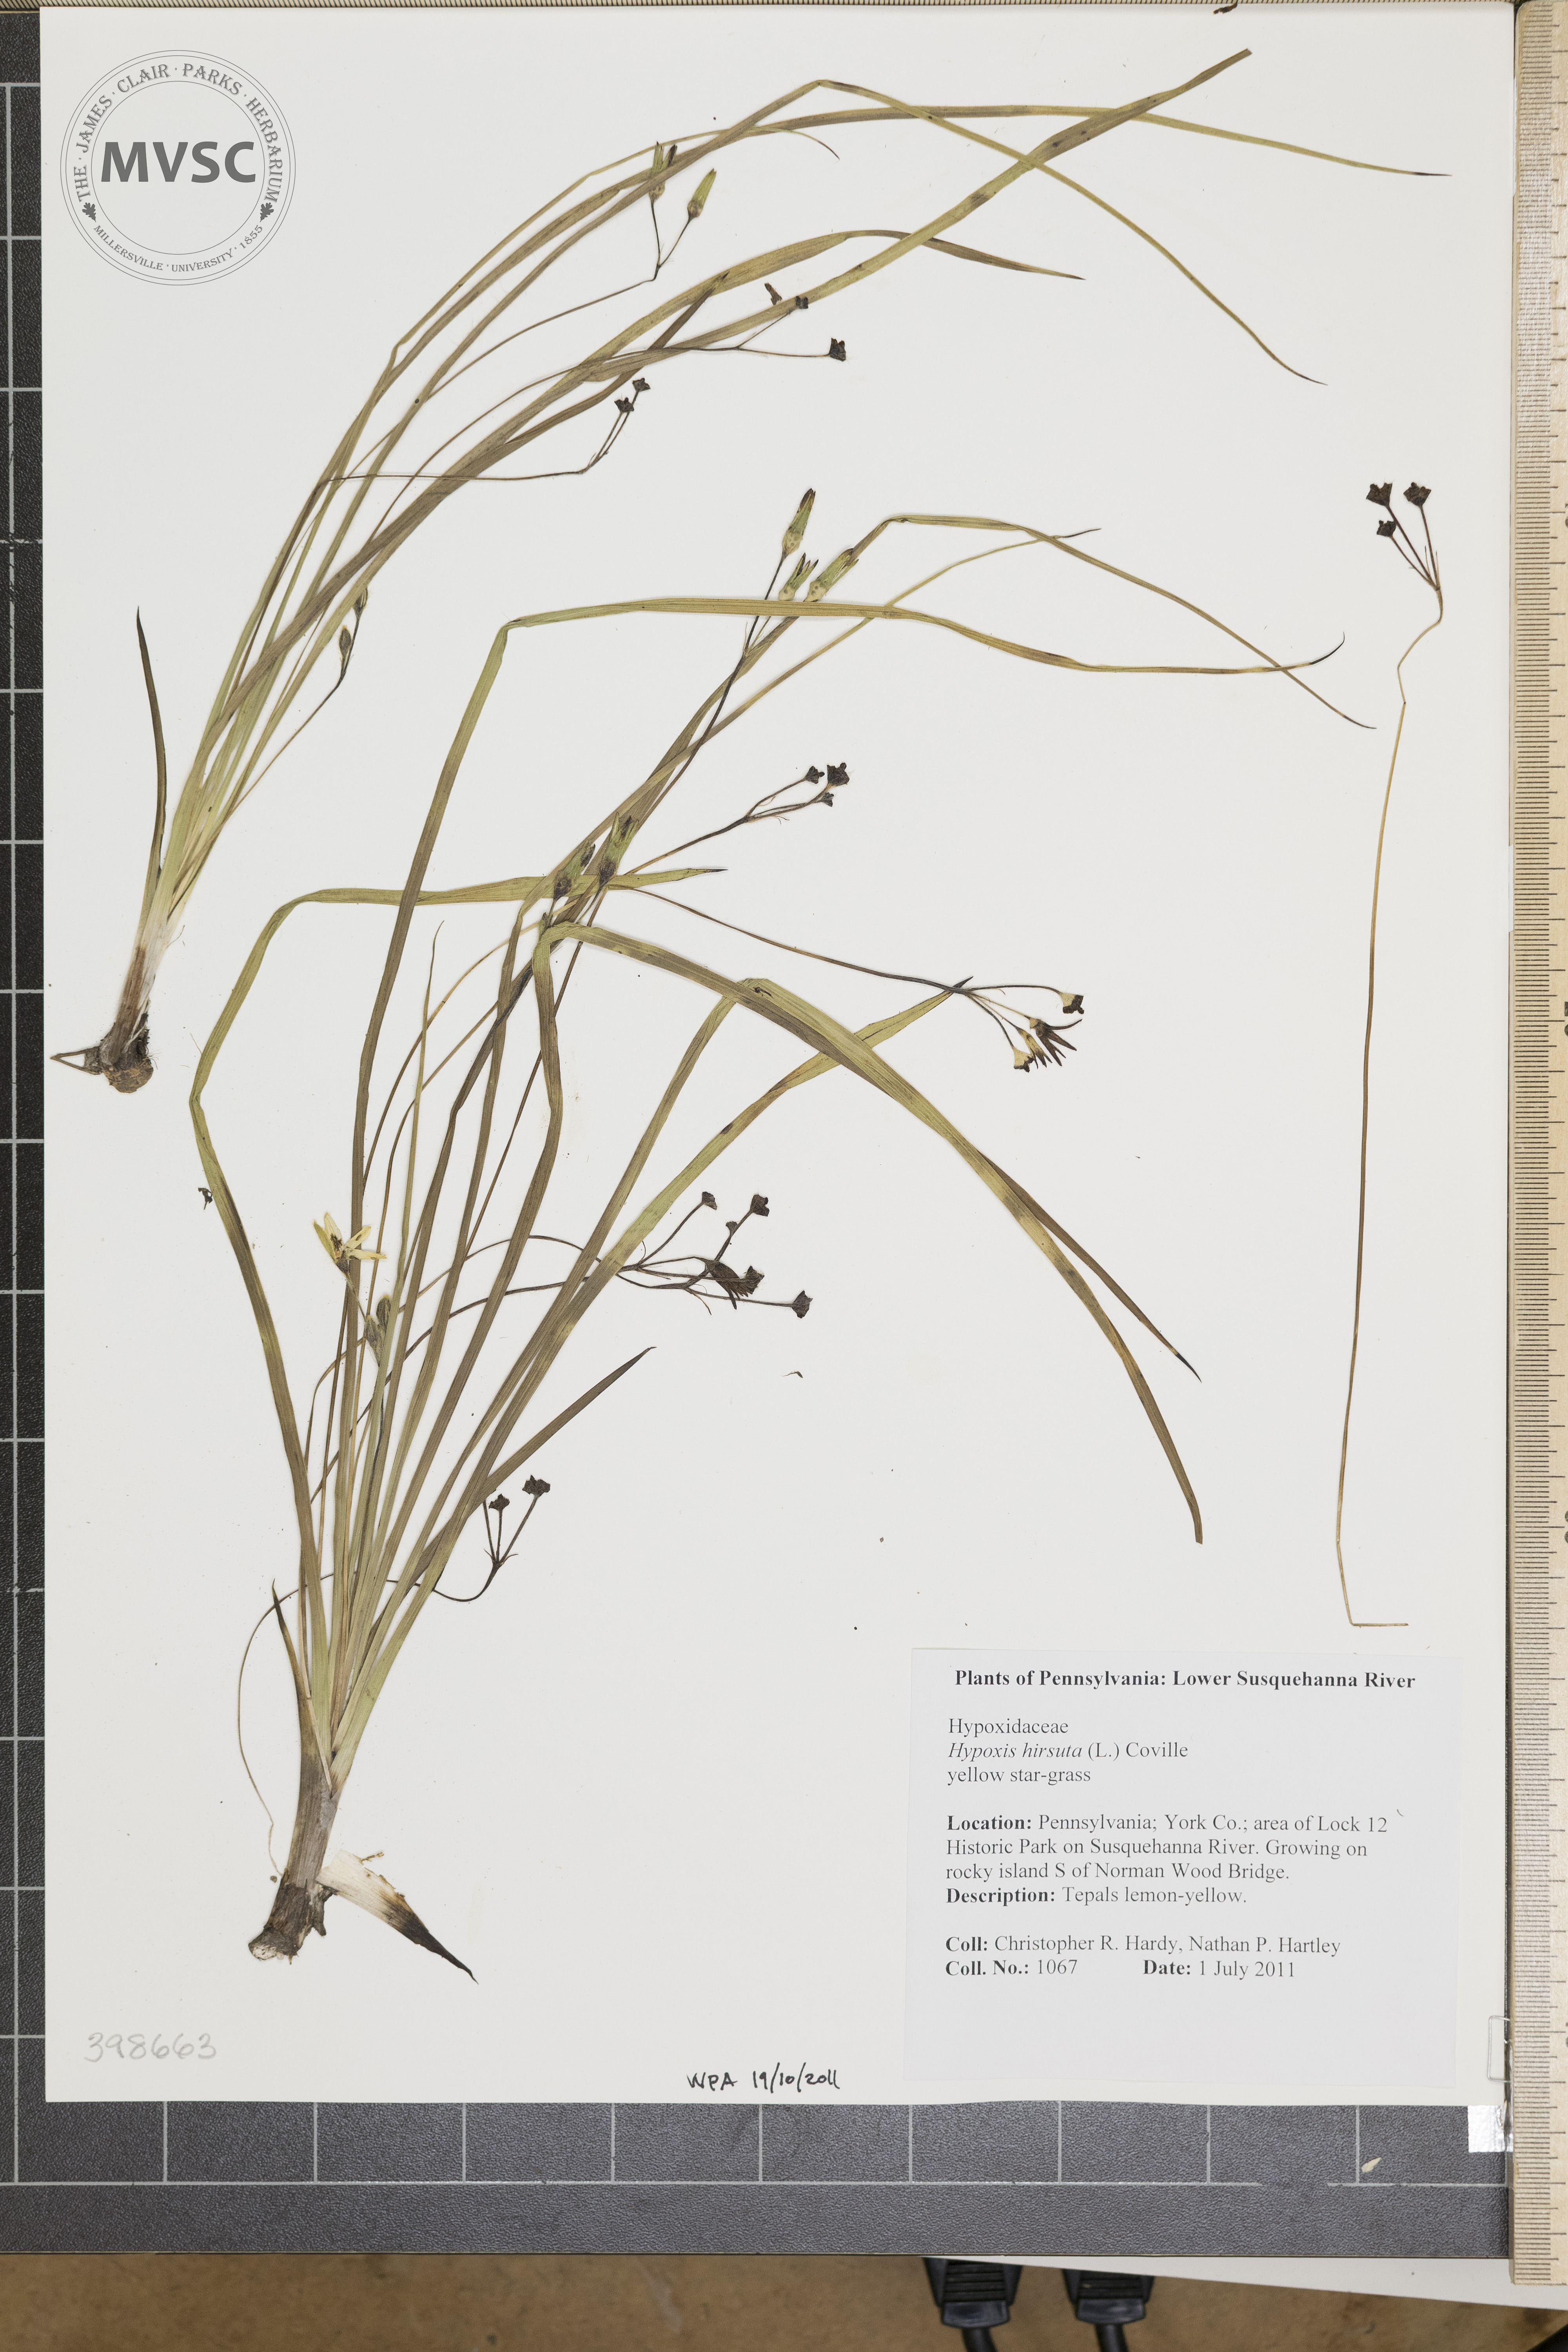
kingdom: Plantae
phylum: Tracheophyta
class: Liliopsida
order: Asparagales
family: Hypoxidaceae
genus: Hypoxis
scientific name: Hypoxis hirsuta
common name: Yellow star-grass
